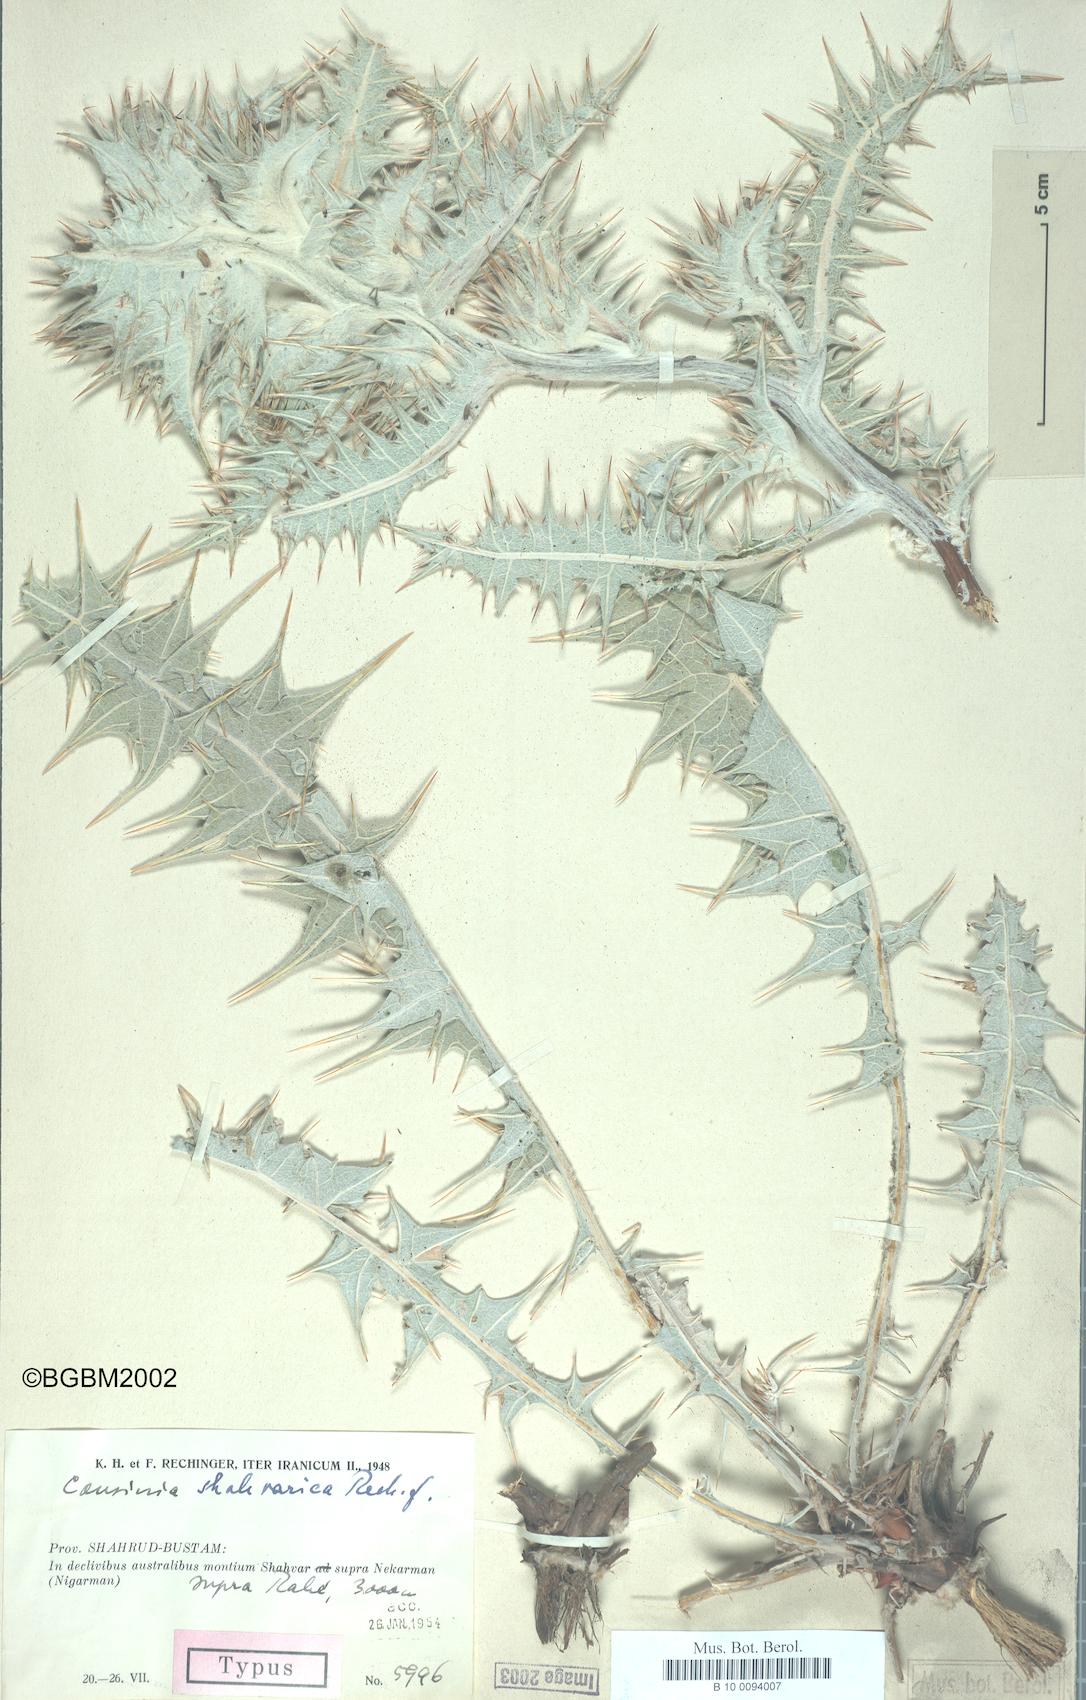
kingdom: Plantae
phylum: Tracheophyta
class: Magnoliopsida
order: Asterales
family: Asteraceae
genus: Cousinia
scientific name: Cousinia shahvarica
